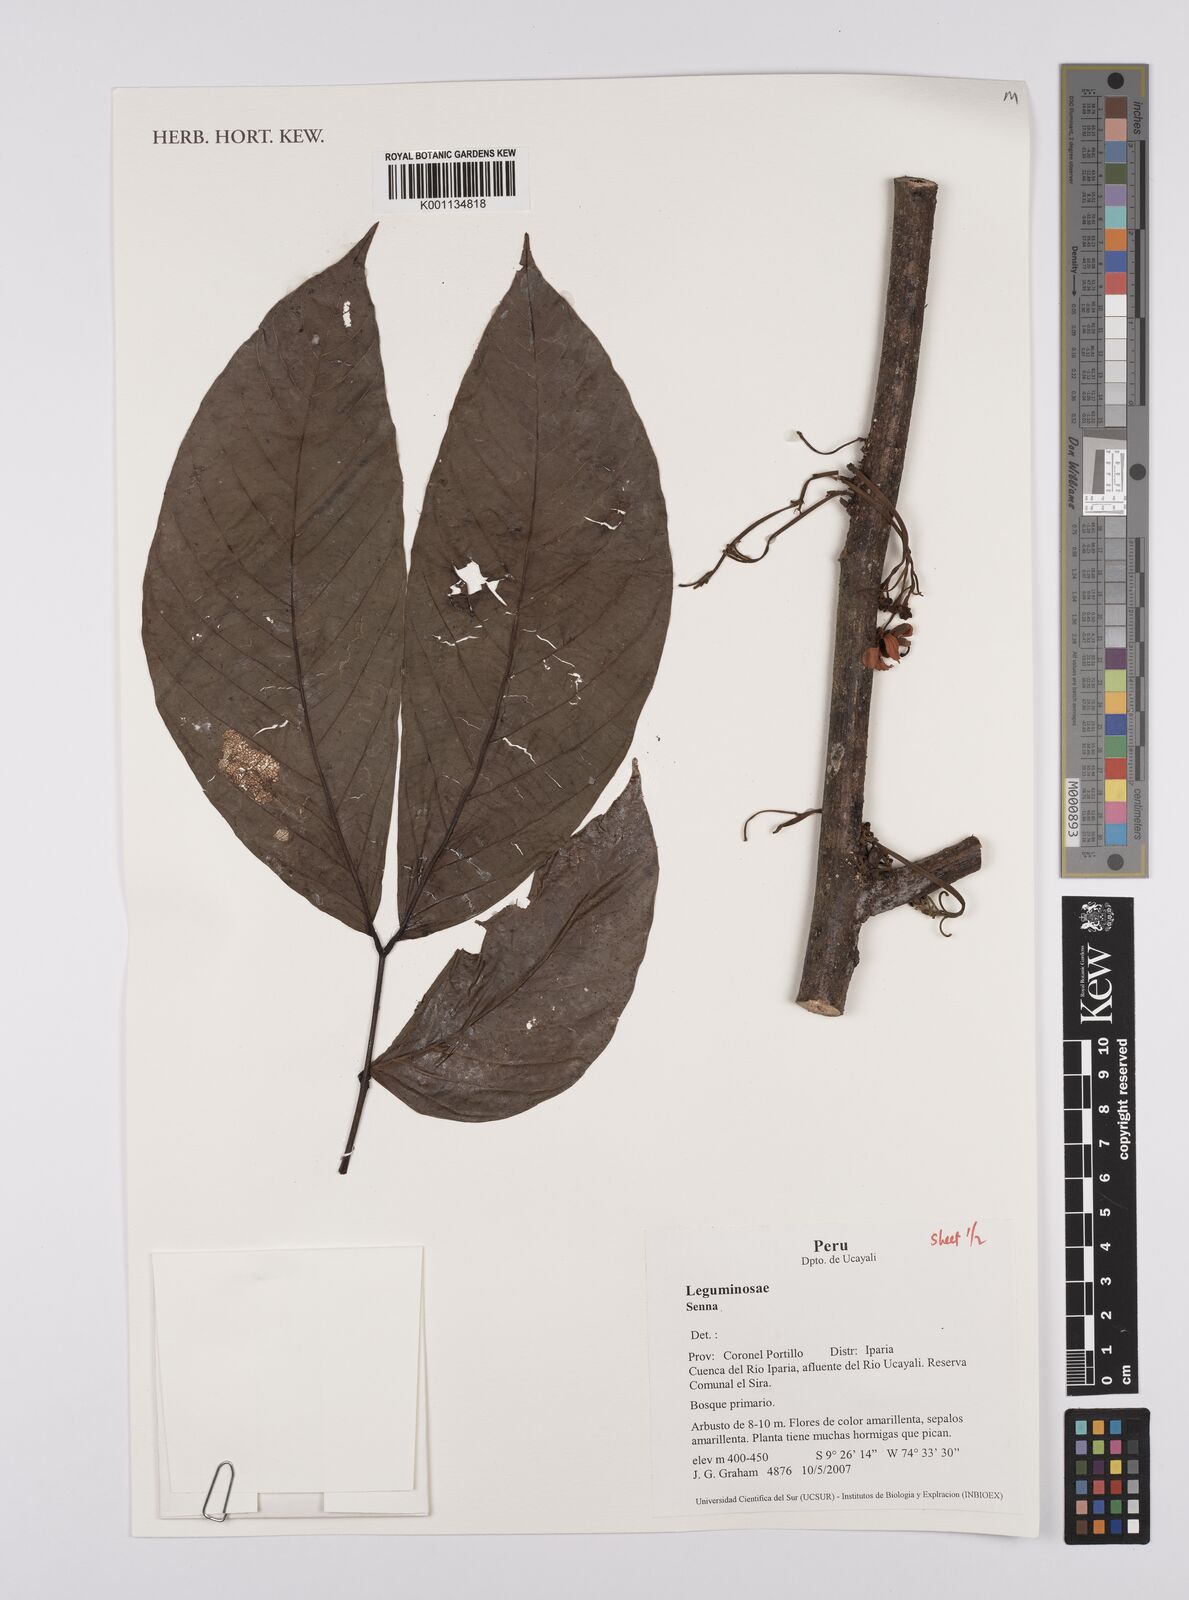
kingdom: Plantae
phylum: Tracheophyta
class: Magnoliopsida
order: Fabales
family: Fabaceae
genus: Senna
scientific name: Senna
